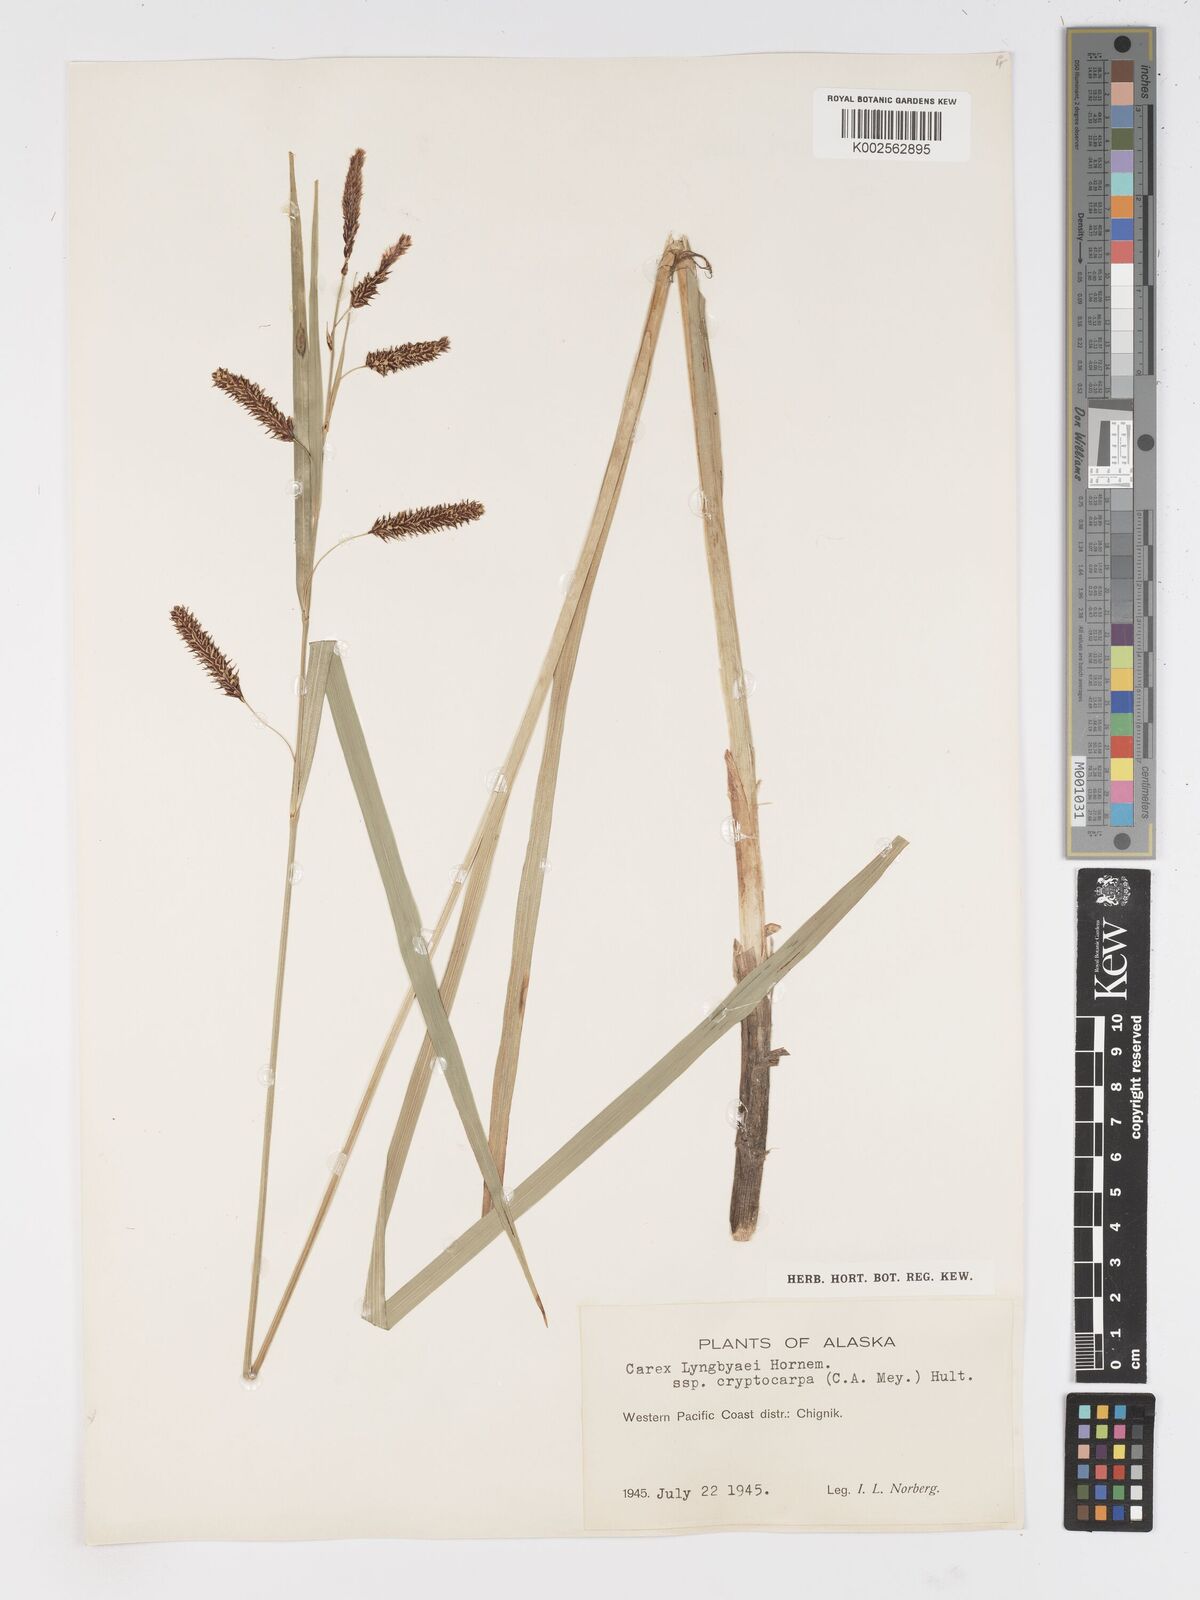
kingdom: Plantae
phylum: Tracheophyta
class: Liliopsida
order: Poales
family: Cyperaceae
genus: Carex
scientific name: Carex lyngbyei
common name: Lyngbye's sedge
